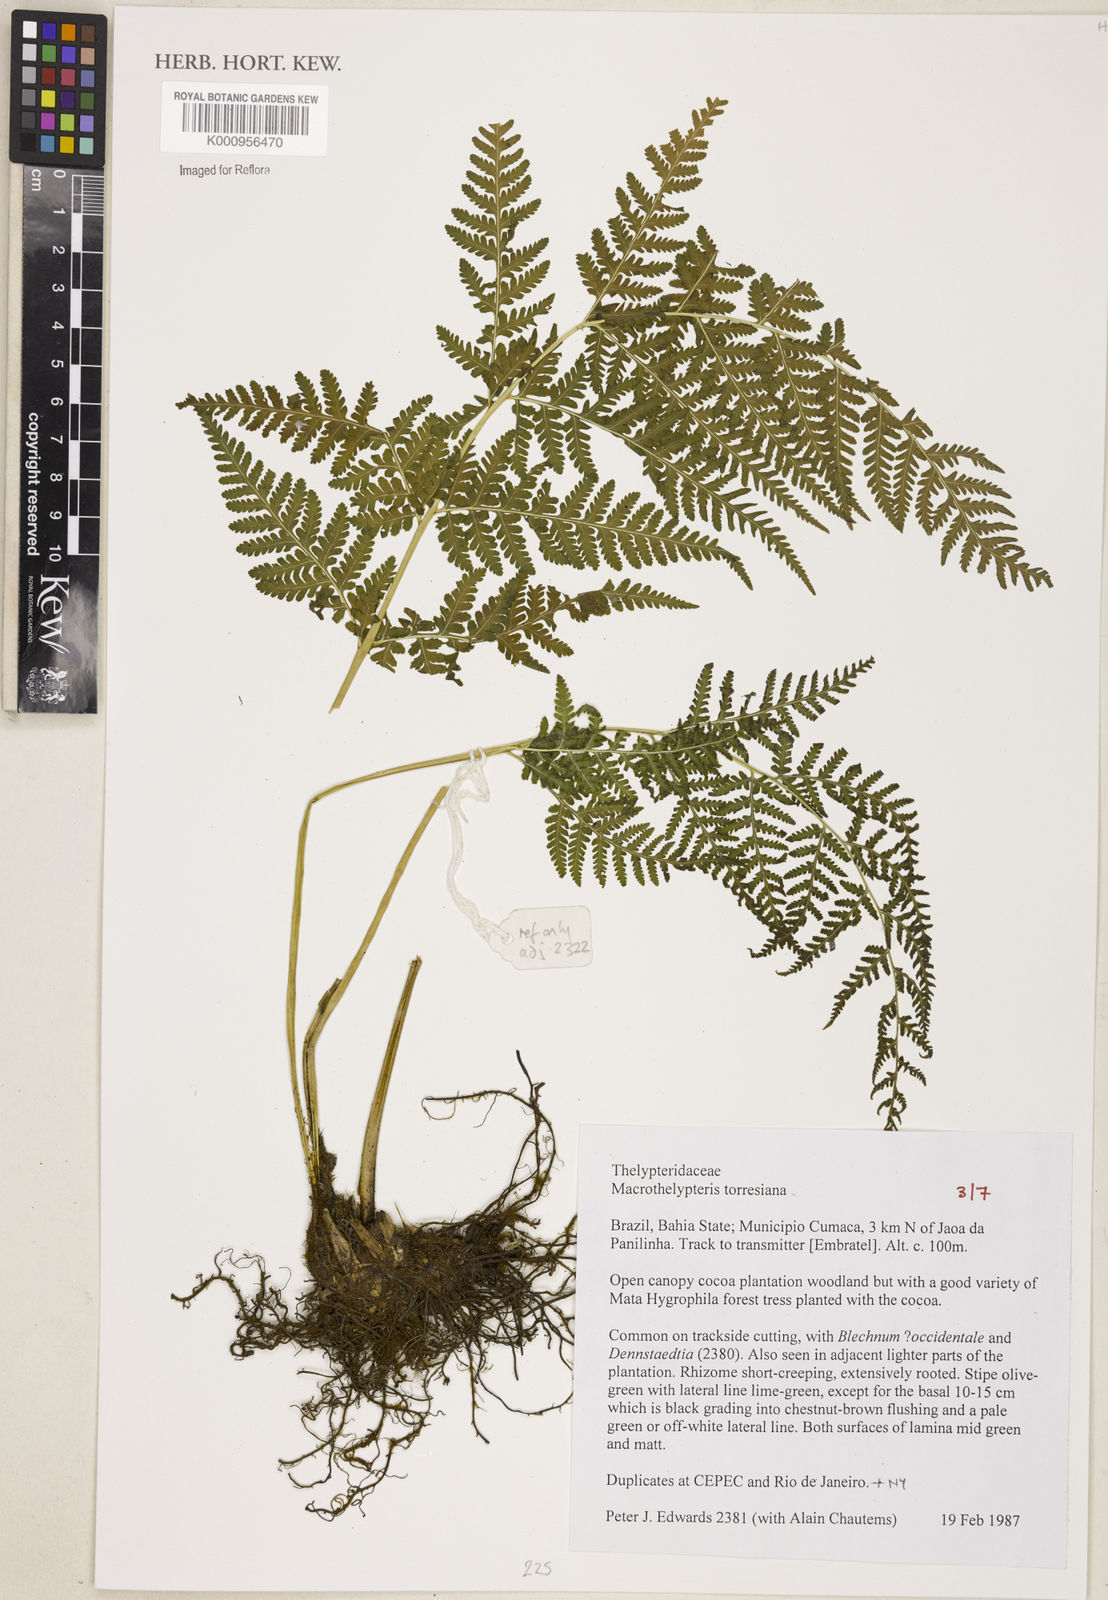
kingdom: Plantae
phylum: Tracheophyta
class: Polypodiopsida
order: Polypodiales
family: Thelypteridaceae
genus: Macrothelypteris
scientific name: Macrothelypteris torresiana
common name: Swordfern
